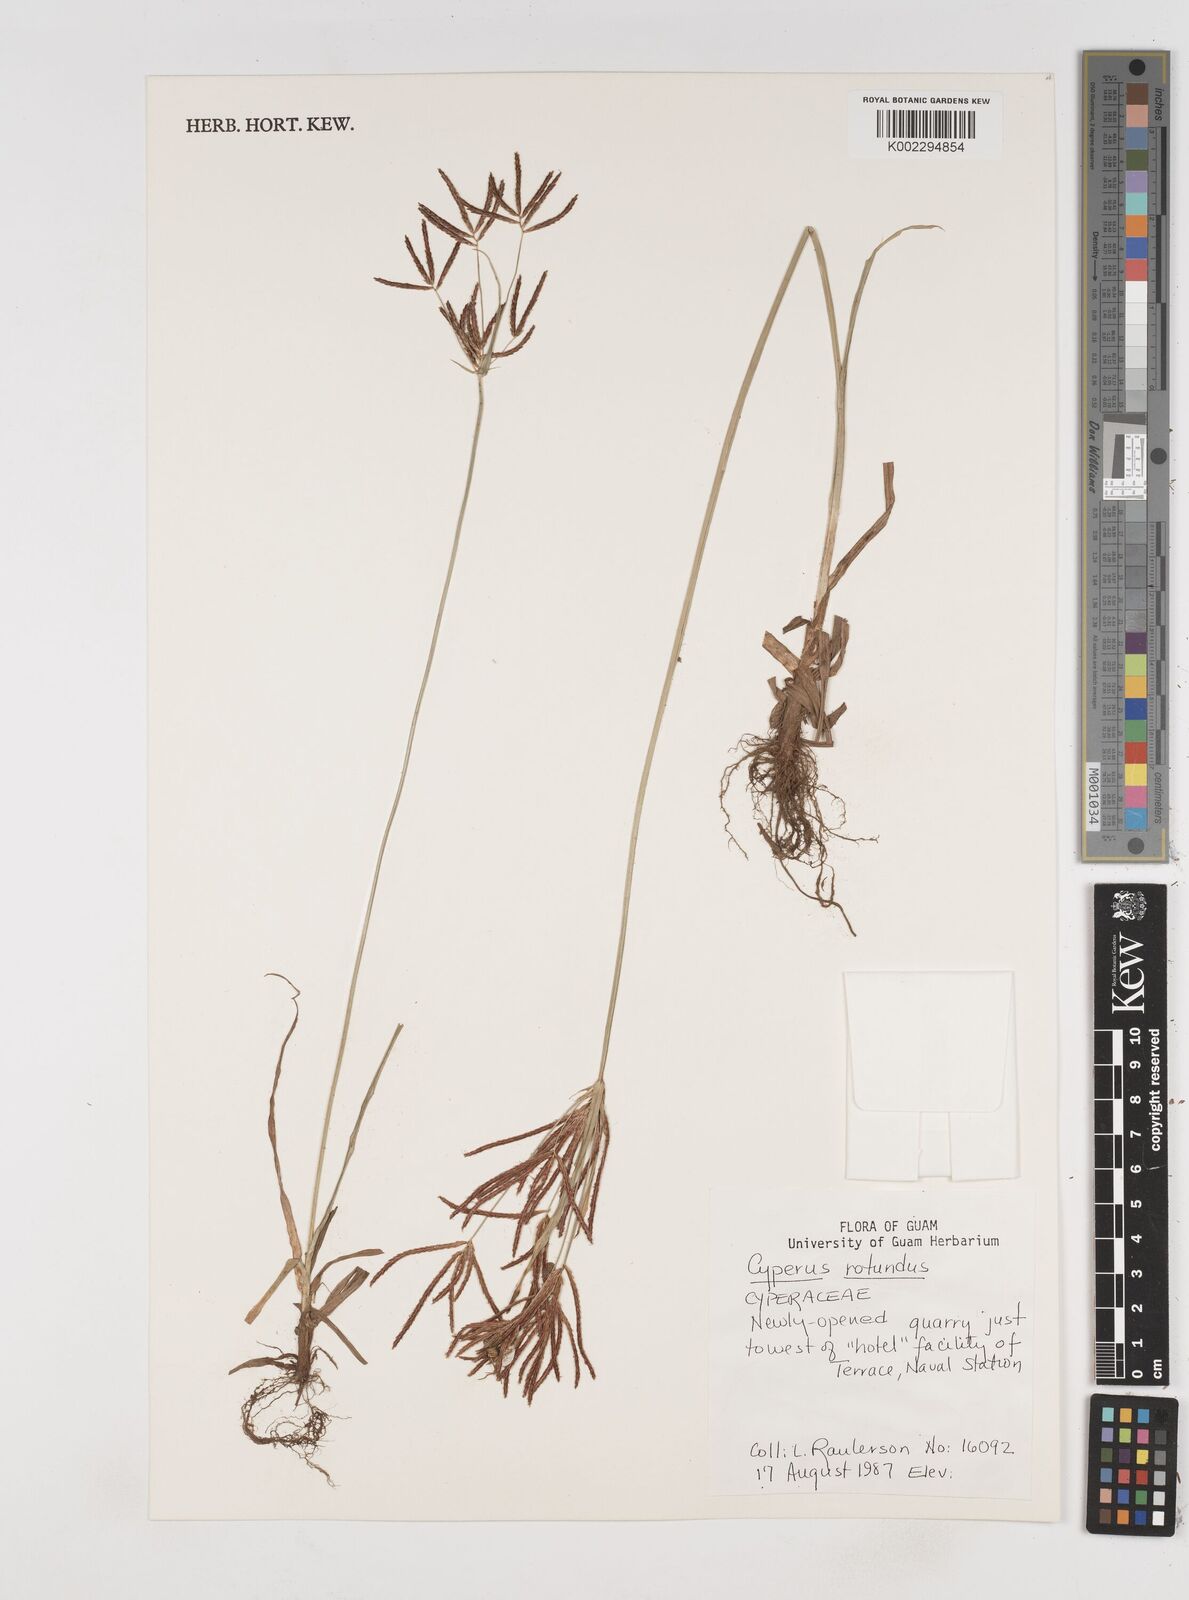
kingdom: Plantae
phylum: Tracheophyta
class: Liliopsida
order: Poales
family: Cyperaceae
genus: Cyperus
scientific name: Cyperus rotundus
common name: Nutgrass
